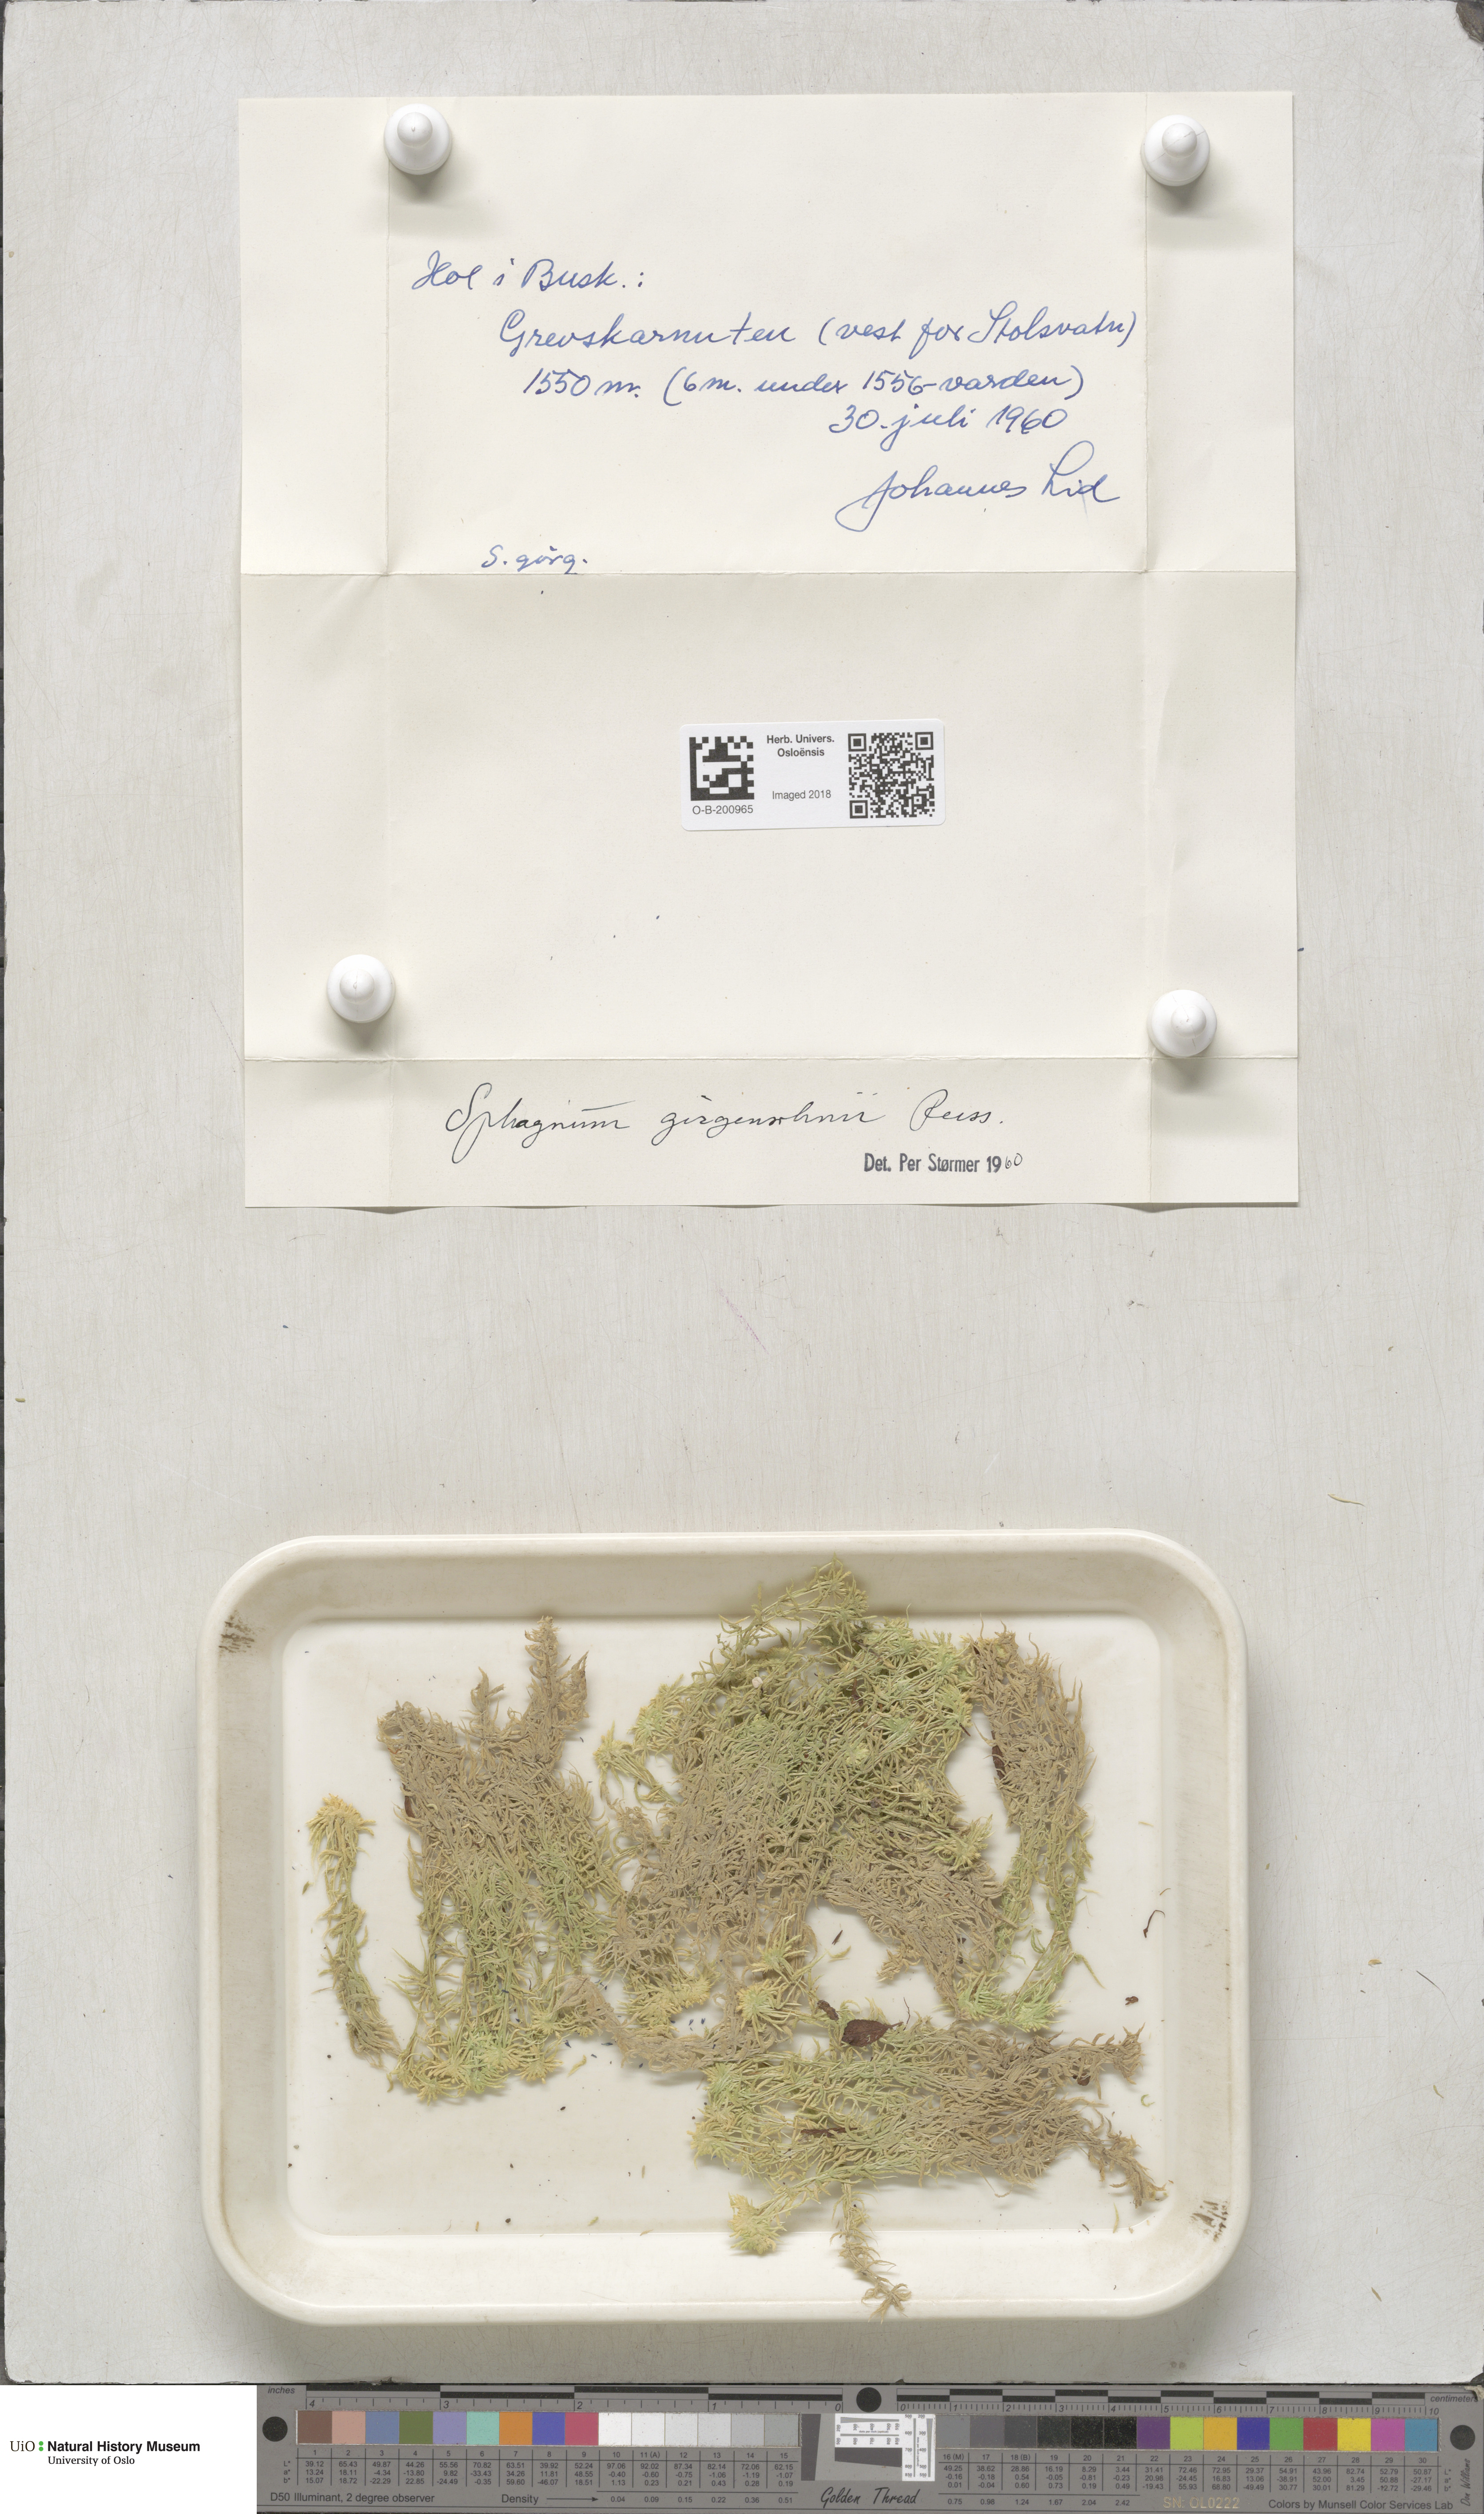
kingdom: Plantae
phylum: Bryophyta
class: Sphagnopsida
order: Sphagnales
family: Sphagnaceae
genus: Sphagnum
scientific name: Sphagnum girgensohnii
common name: Girgensohn's peat moss
